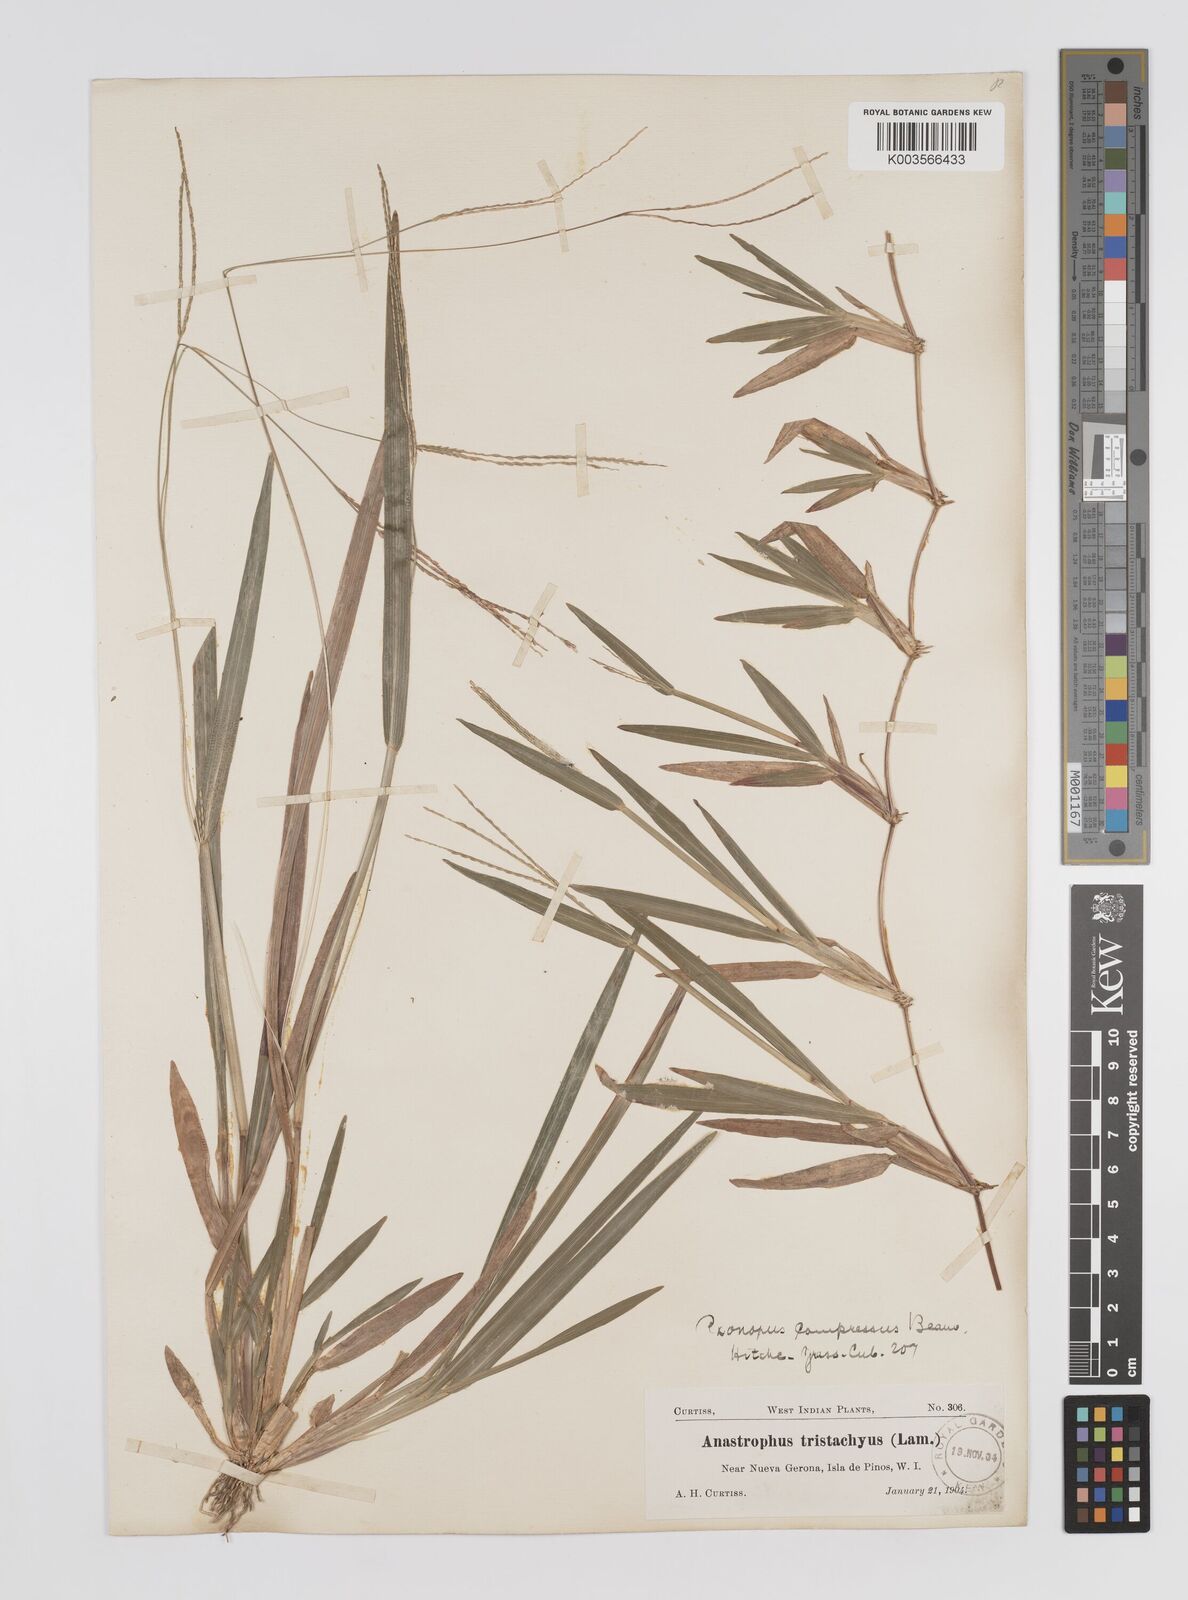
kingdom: Plantae
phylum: Tracheophyta
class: Liliopsida
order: Poales
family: Poaceae
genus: Axonopus
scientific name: Axonopus compressus
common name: American carpet grass
